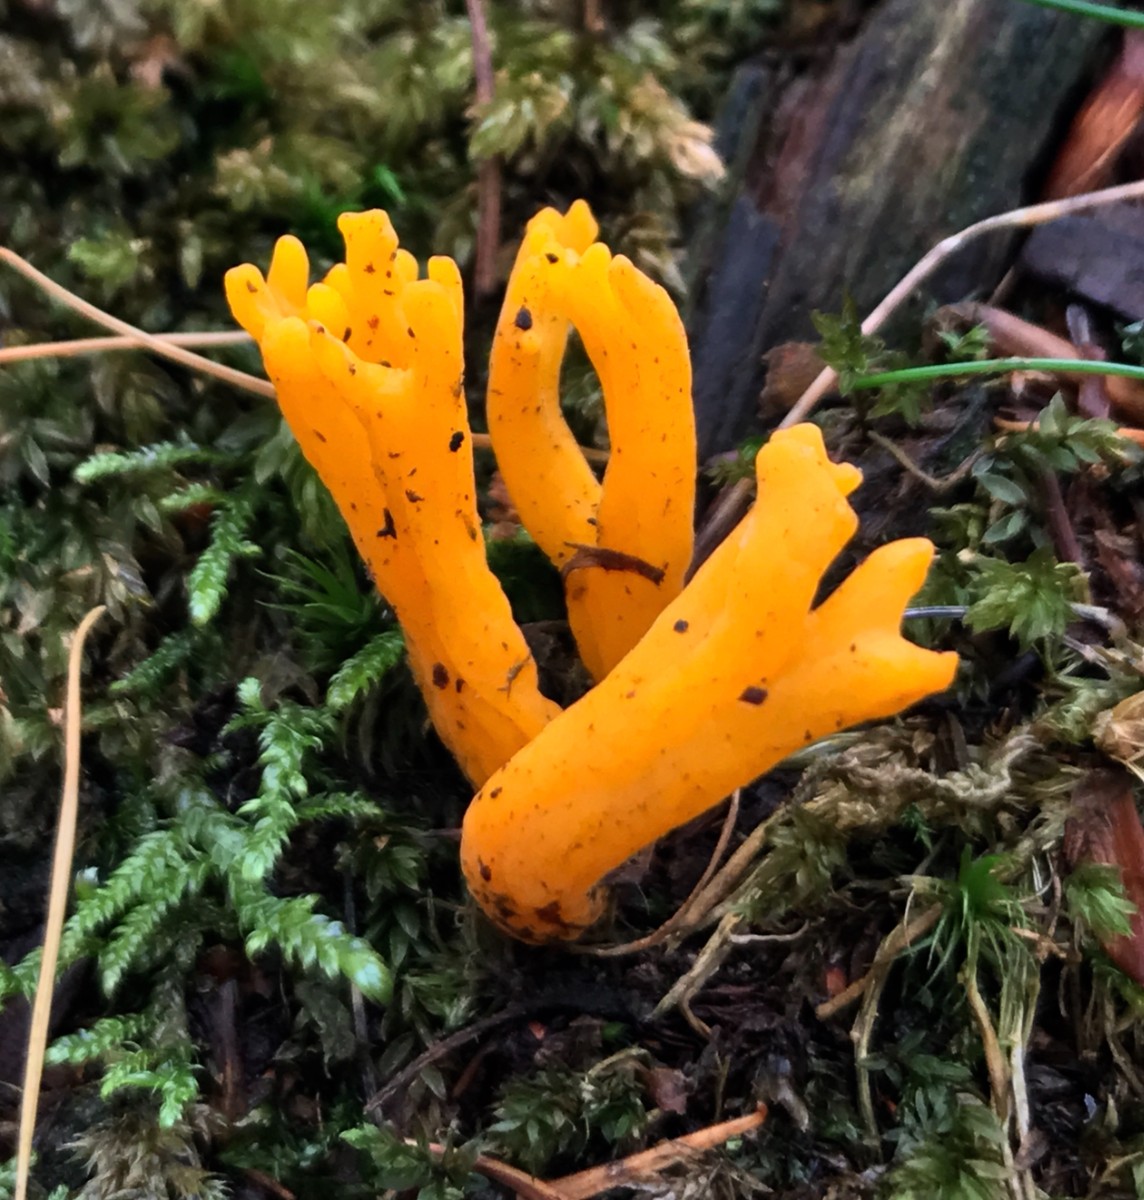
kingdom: Fungi
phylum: Basidiomycota
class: Dacrymycetes
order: Dacrymycetales
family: Dacrymycetaceae
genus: Calocera
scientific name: Calocera viscosa
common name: almindelig guldgaffel
